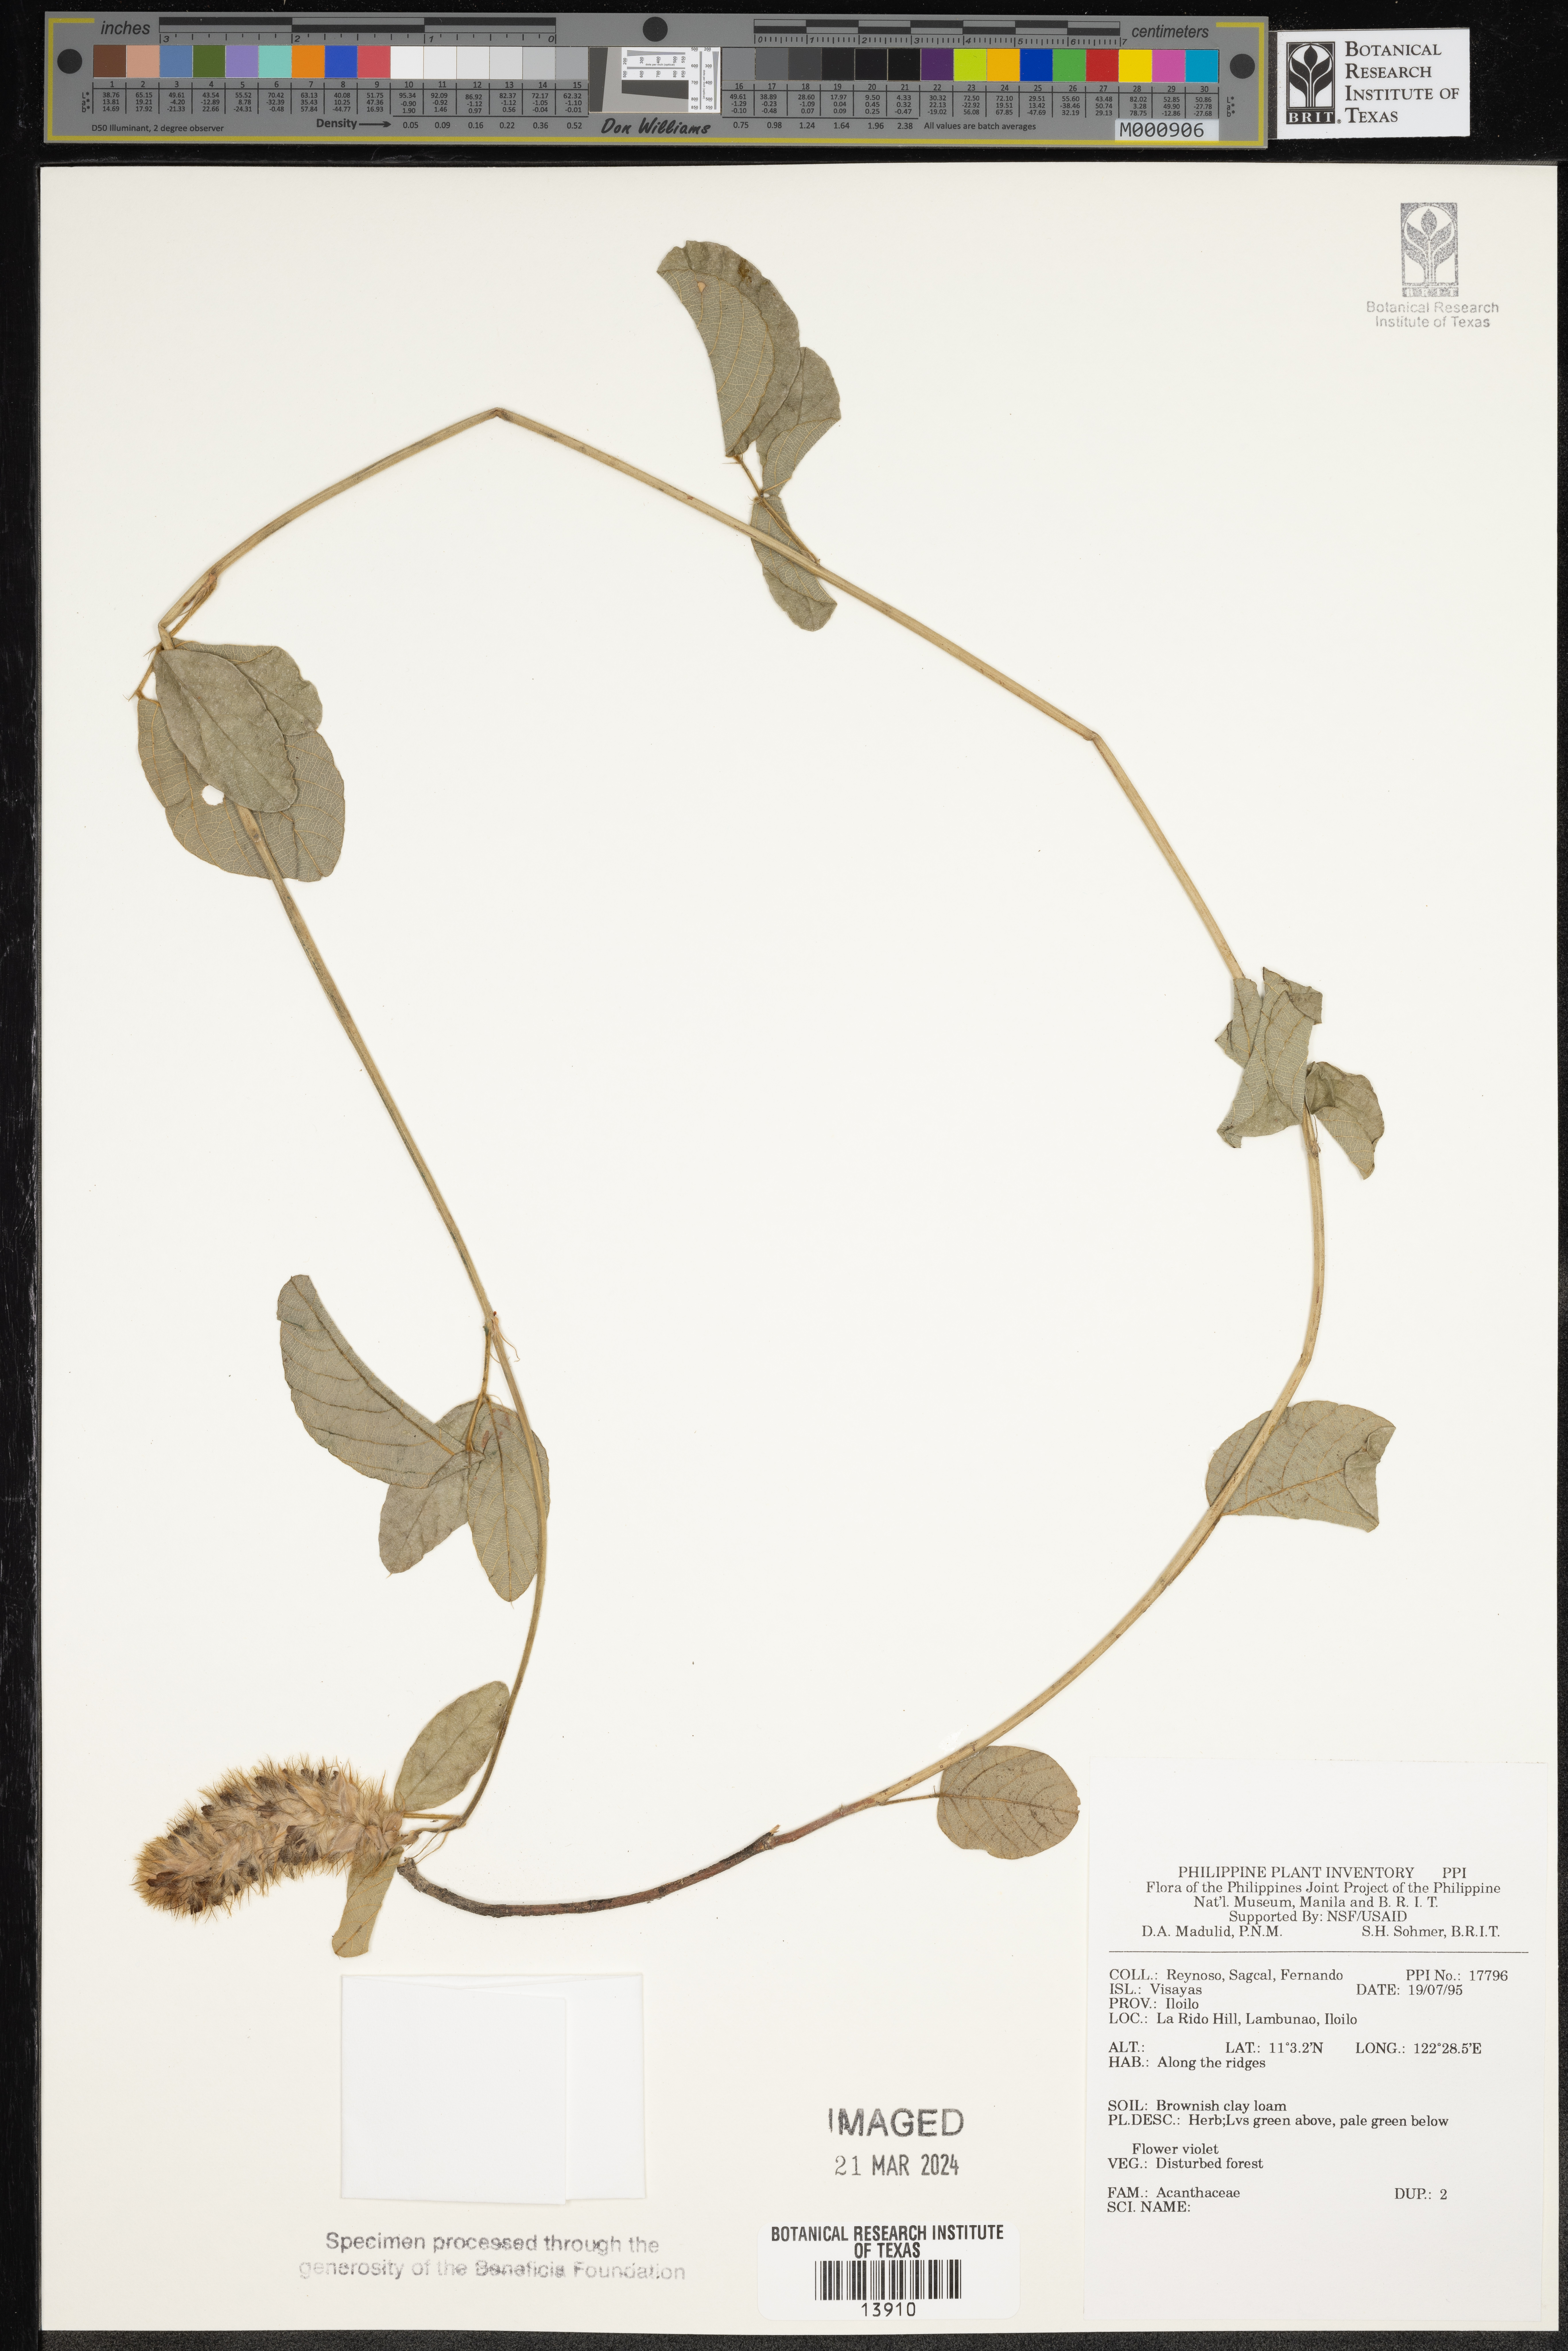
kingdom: Plantae
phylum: Tracheophyta
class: Magnoliopsida
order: Lamiales
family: Acanthaceae
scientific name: Acanthaceae
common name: Acanthaceae
